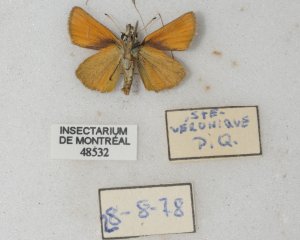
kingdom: Animalia
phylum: Arthropoda
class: Insecta
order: Lepidoptera
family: Hesperiidae
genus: Thymelicus
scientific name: Thymelicus lineola
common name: European Skipper
